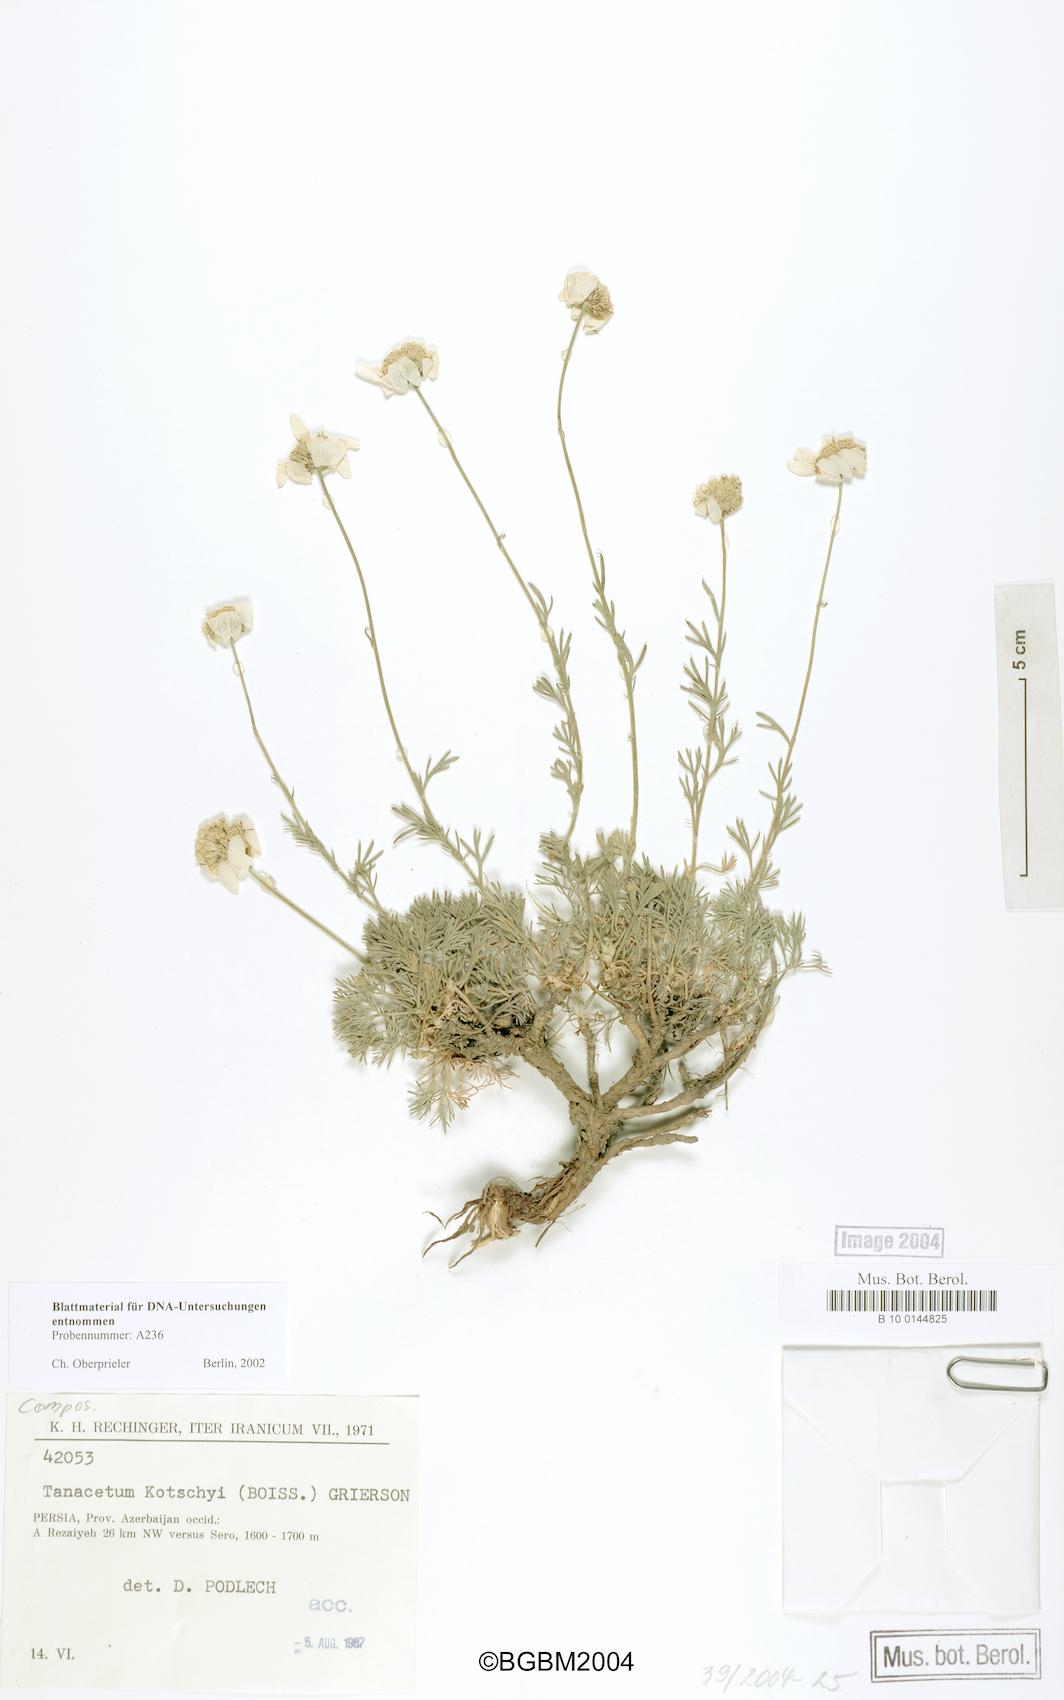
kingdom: Plantae
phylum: Tracheophyta
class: Magnoliopsida
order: Asterales
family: Asteraceae
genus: Tanacetum
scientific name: Tanacetum kotschyi
